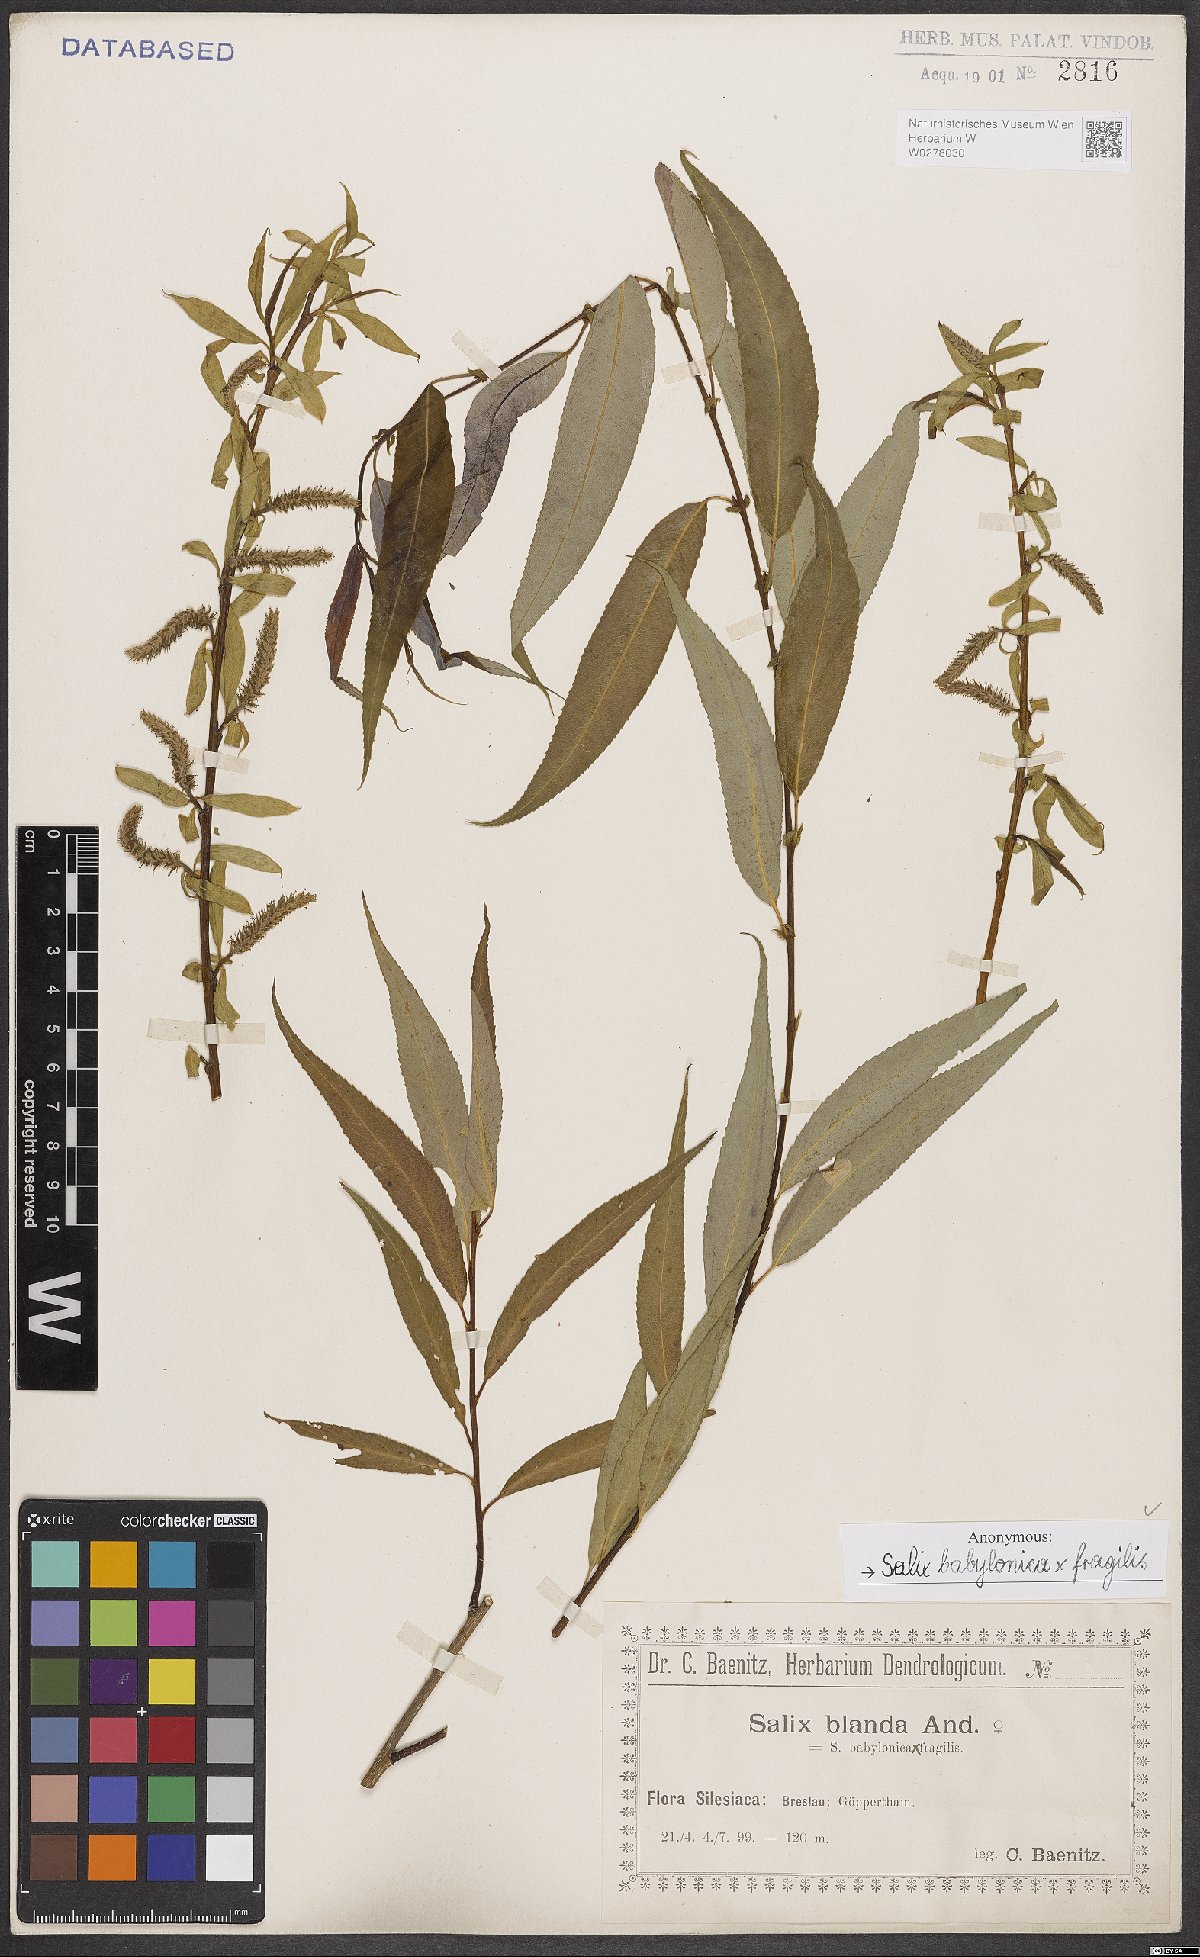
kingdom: Plantae
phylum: Tracheophyta
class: Magnoliopsida
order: Malpighiales
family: Salicaceae
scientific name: Salicaceae
